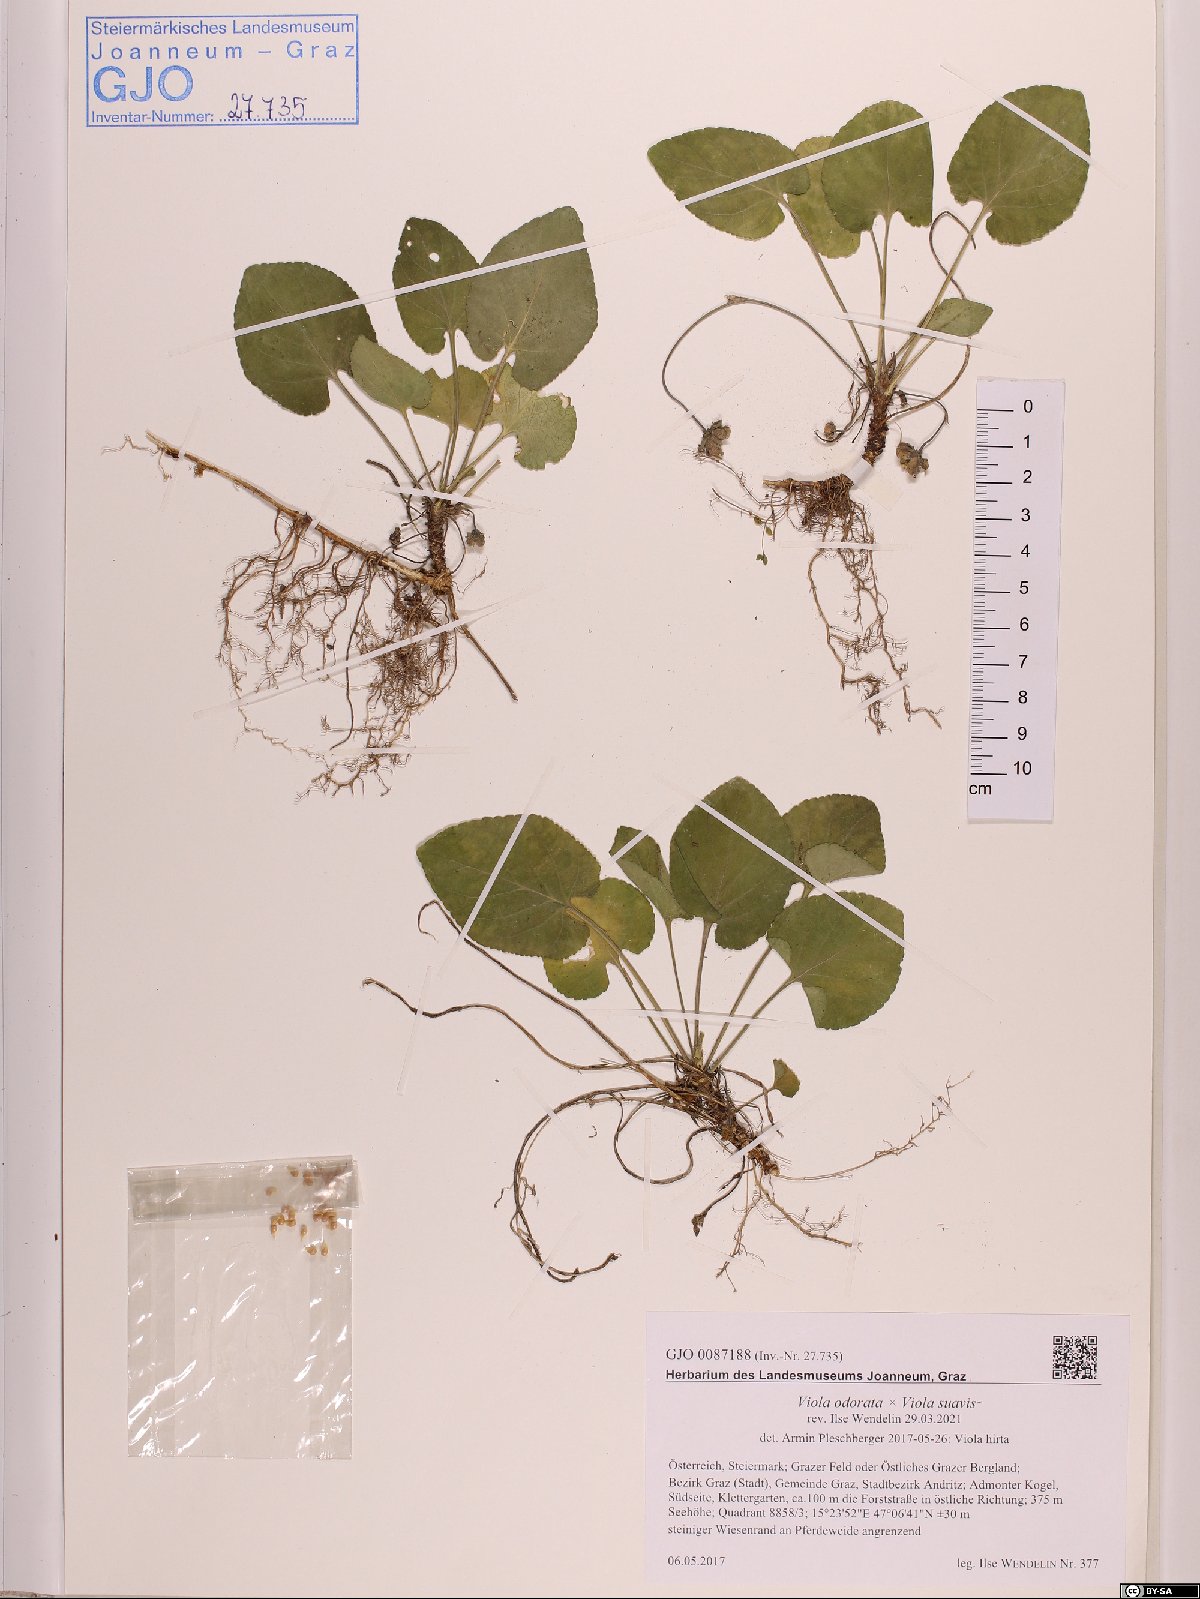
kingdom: Plantae
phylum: Tracheophyta
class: Magnoliopsida
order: Malpighiales
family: Violaceae
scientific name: Violaceae
